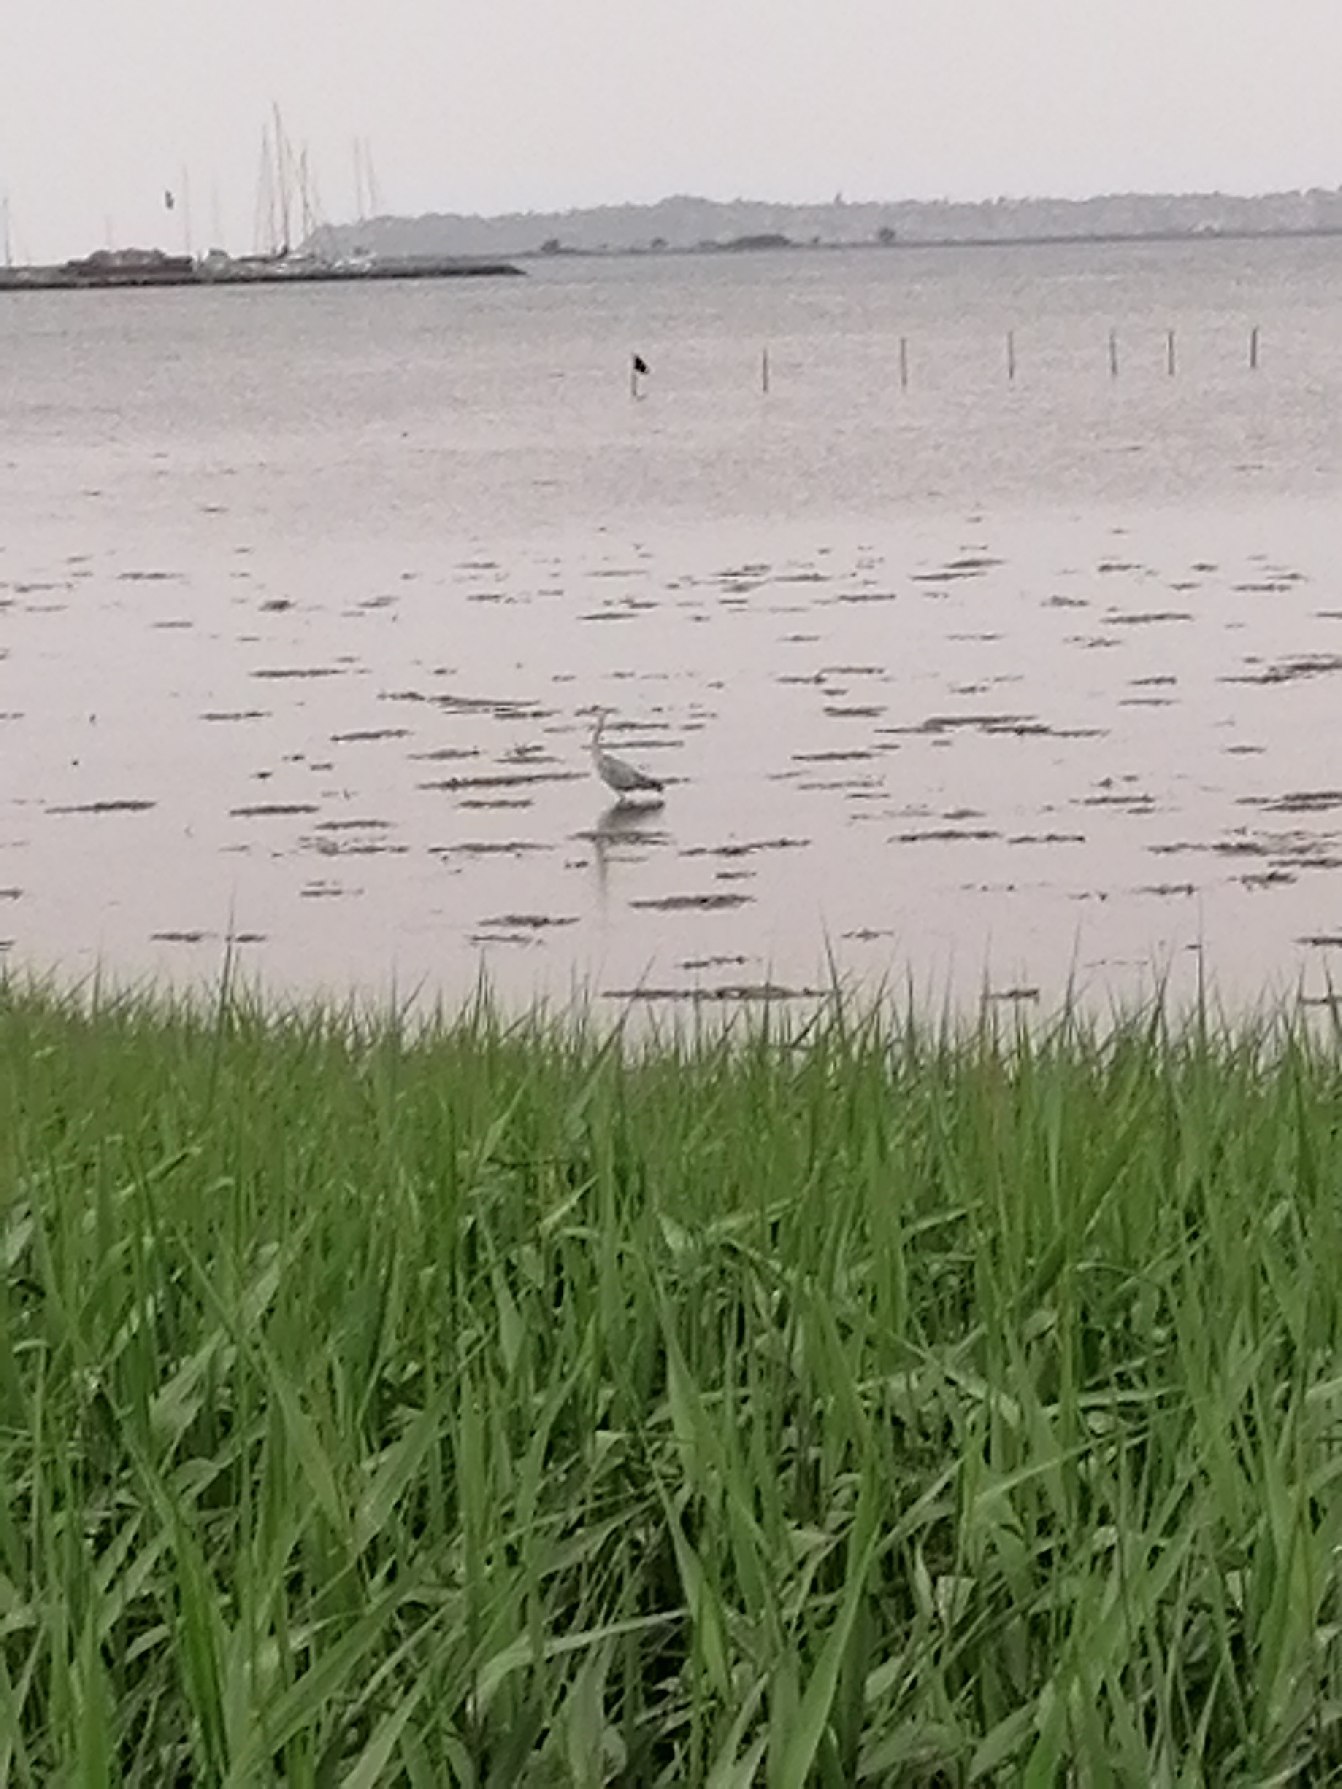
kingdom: Animalia
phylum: Chordata
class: Aves
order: Pelecaniformes
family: Ardeidae
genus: Ardea
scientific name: Ardea cinerea
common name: Fiskehejre
